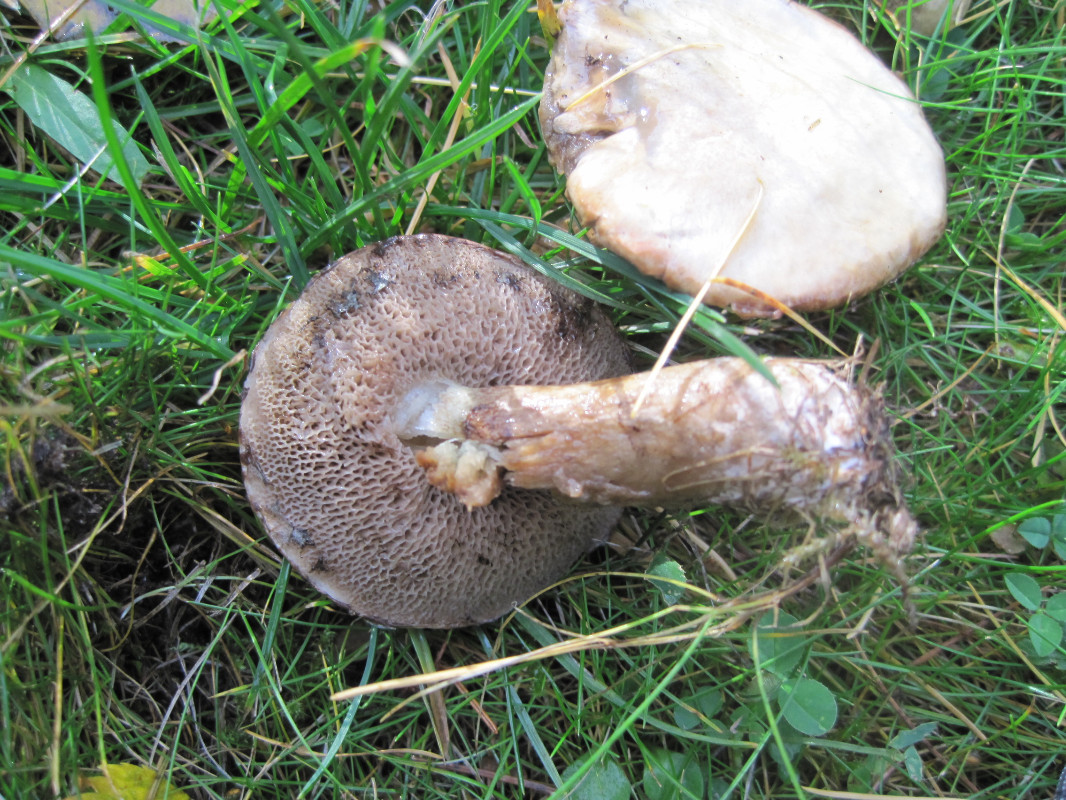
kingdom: Fungi
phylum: Basidiomycota
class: Agaricomycetes
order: Boletales
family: Suillaceae
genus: Suillus
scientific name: Suillus viscidus
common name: olivengrå slimrørhat
